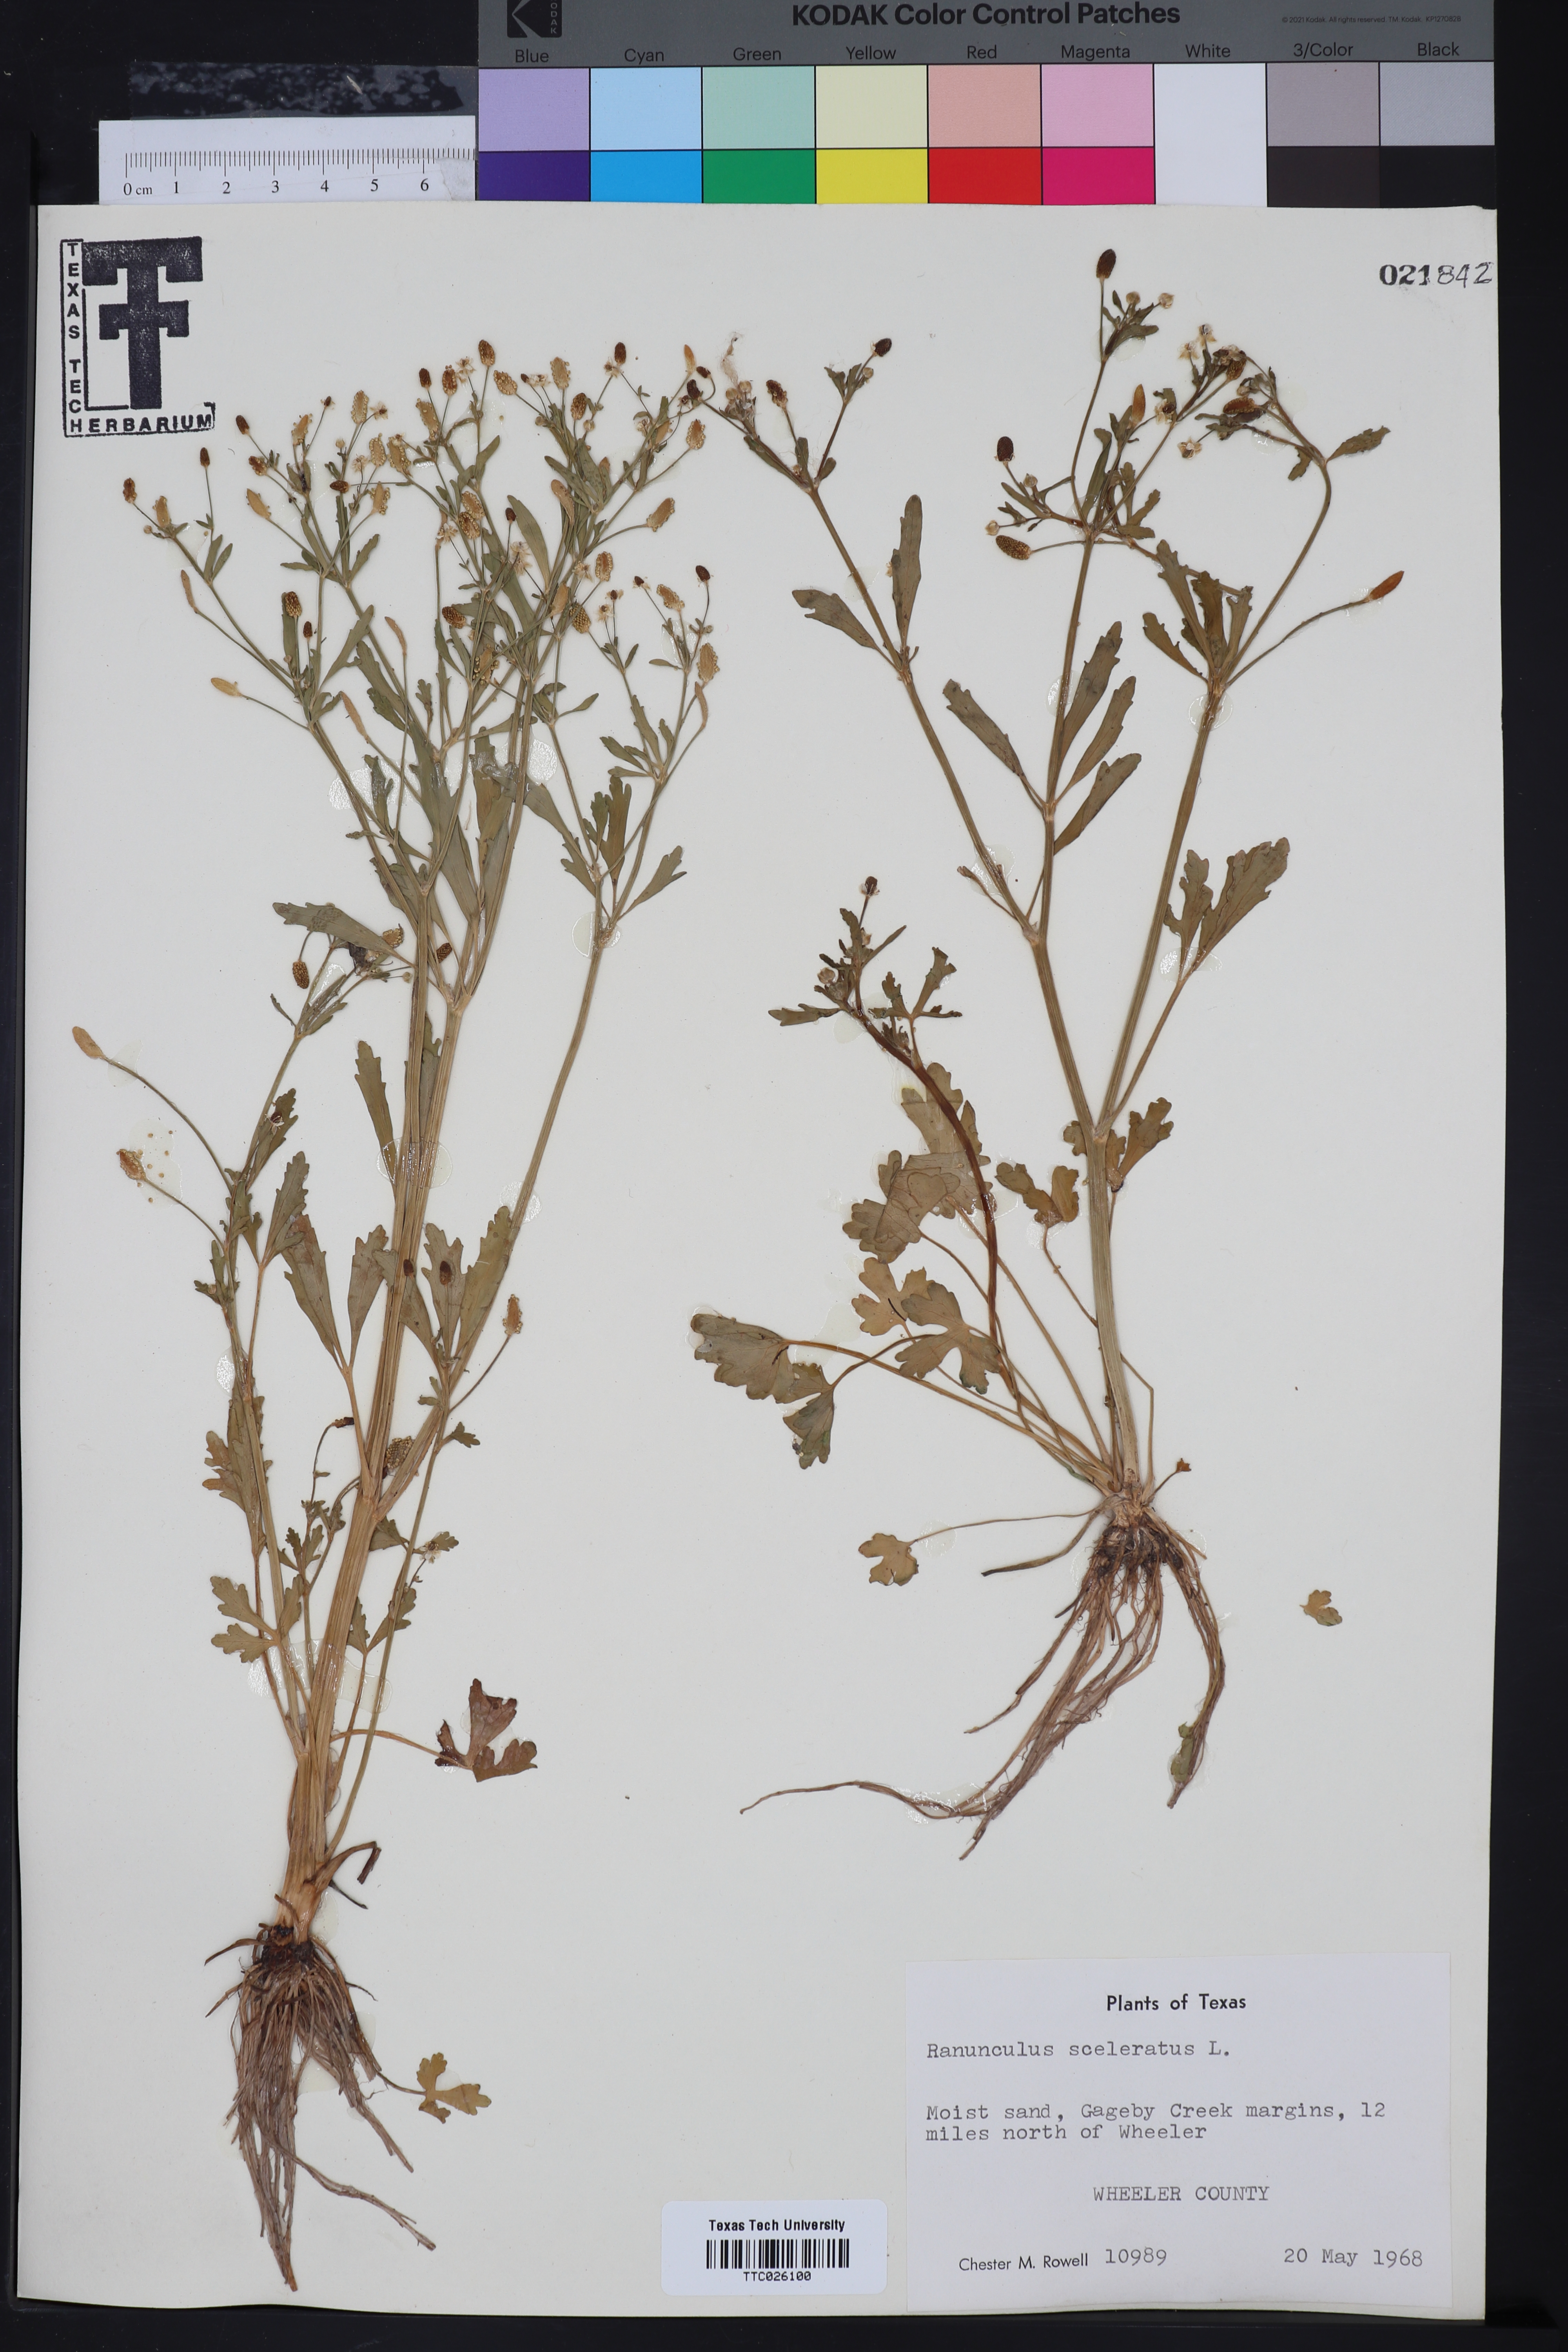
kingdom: Plantae
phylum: Tracheophyta
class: Magnoliopsida
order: Ranunculales
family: Ranunculaceae
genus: Ranunculus
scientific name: Ranunculus sceleratus
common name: Celery-leaved buttercup
